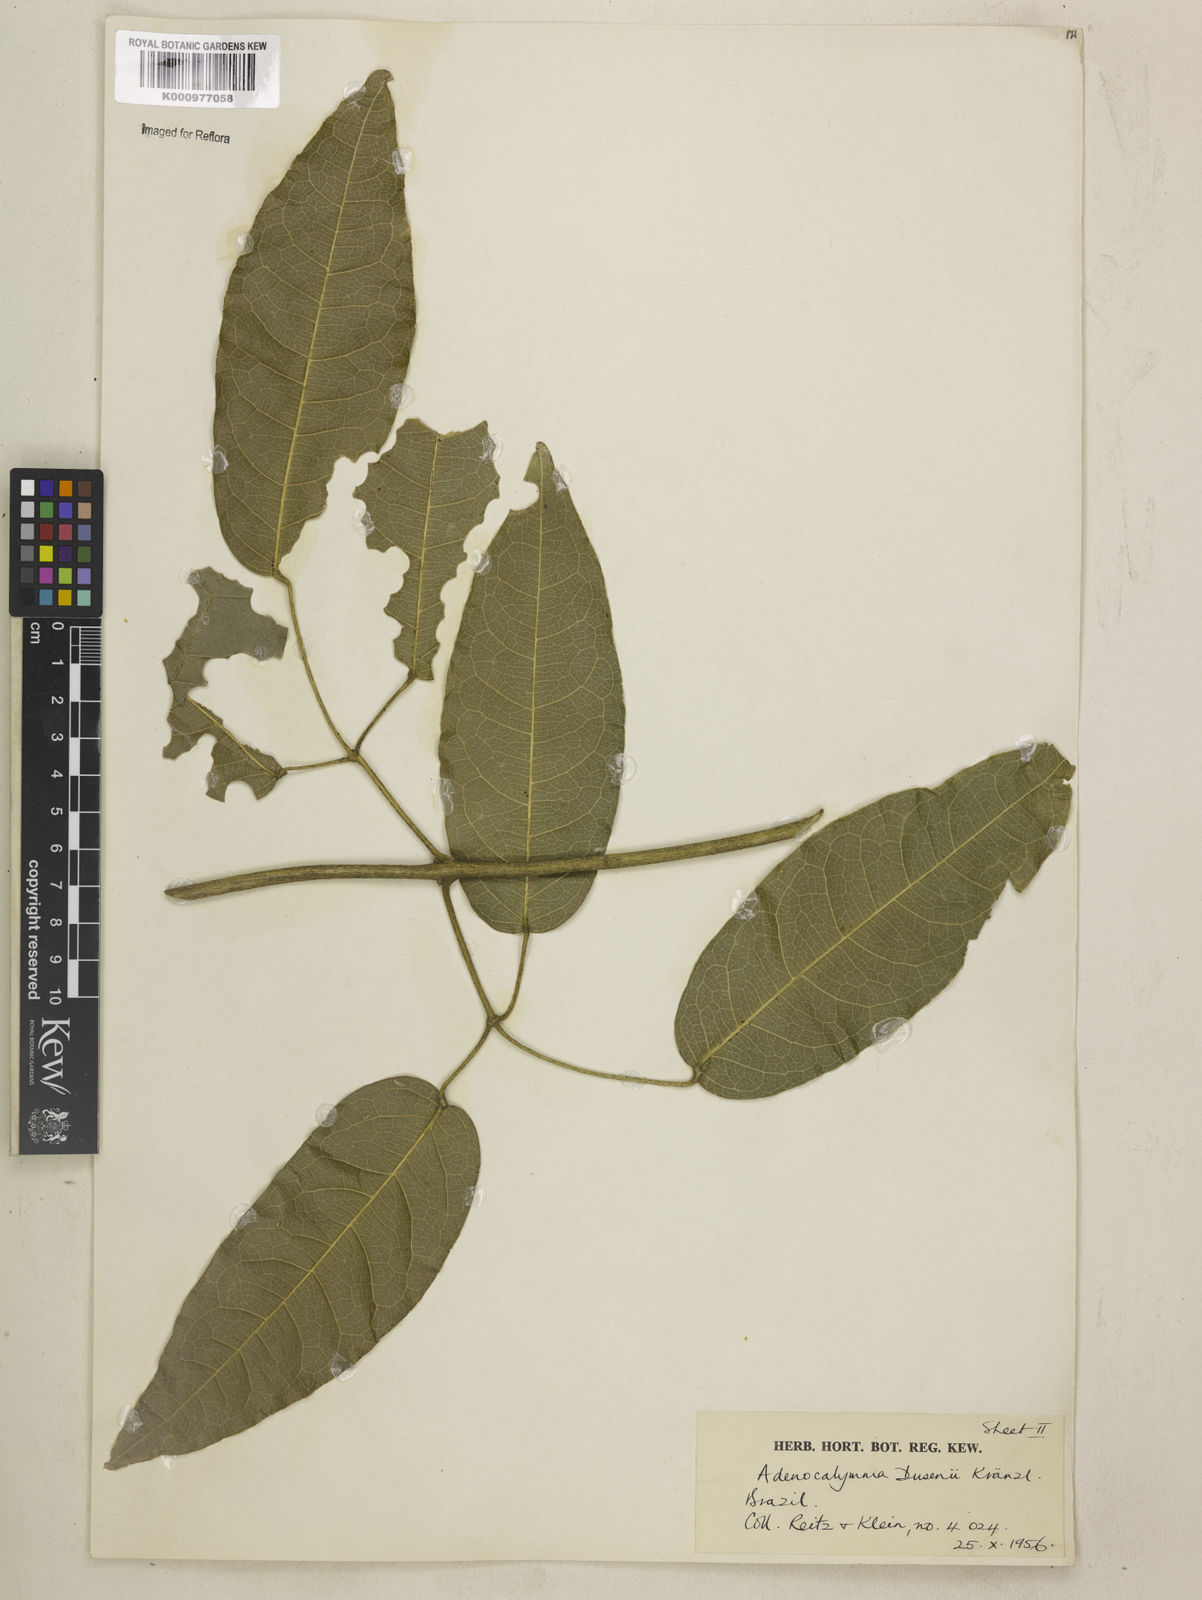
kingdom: Plantae
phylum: Tracheophyta
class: Magnoliopsida
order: Lamiales
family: Bignoniaceae
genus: Adenocalymma
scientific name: Adenocalymma dusenii
